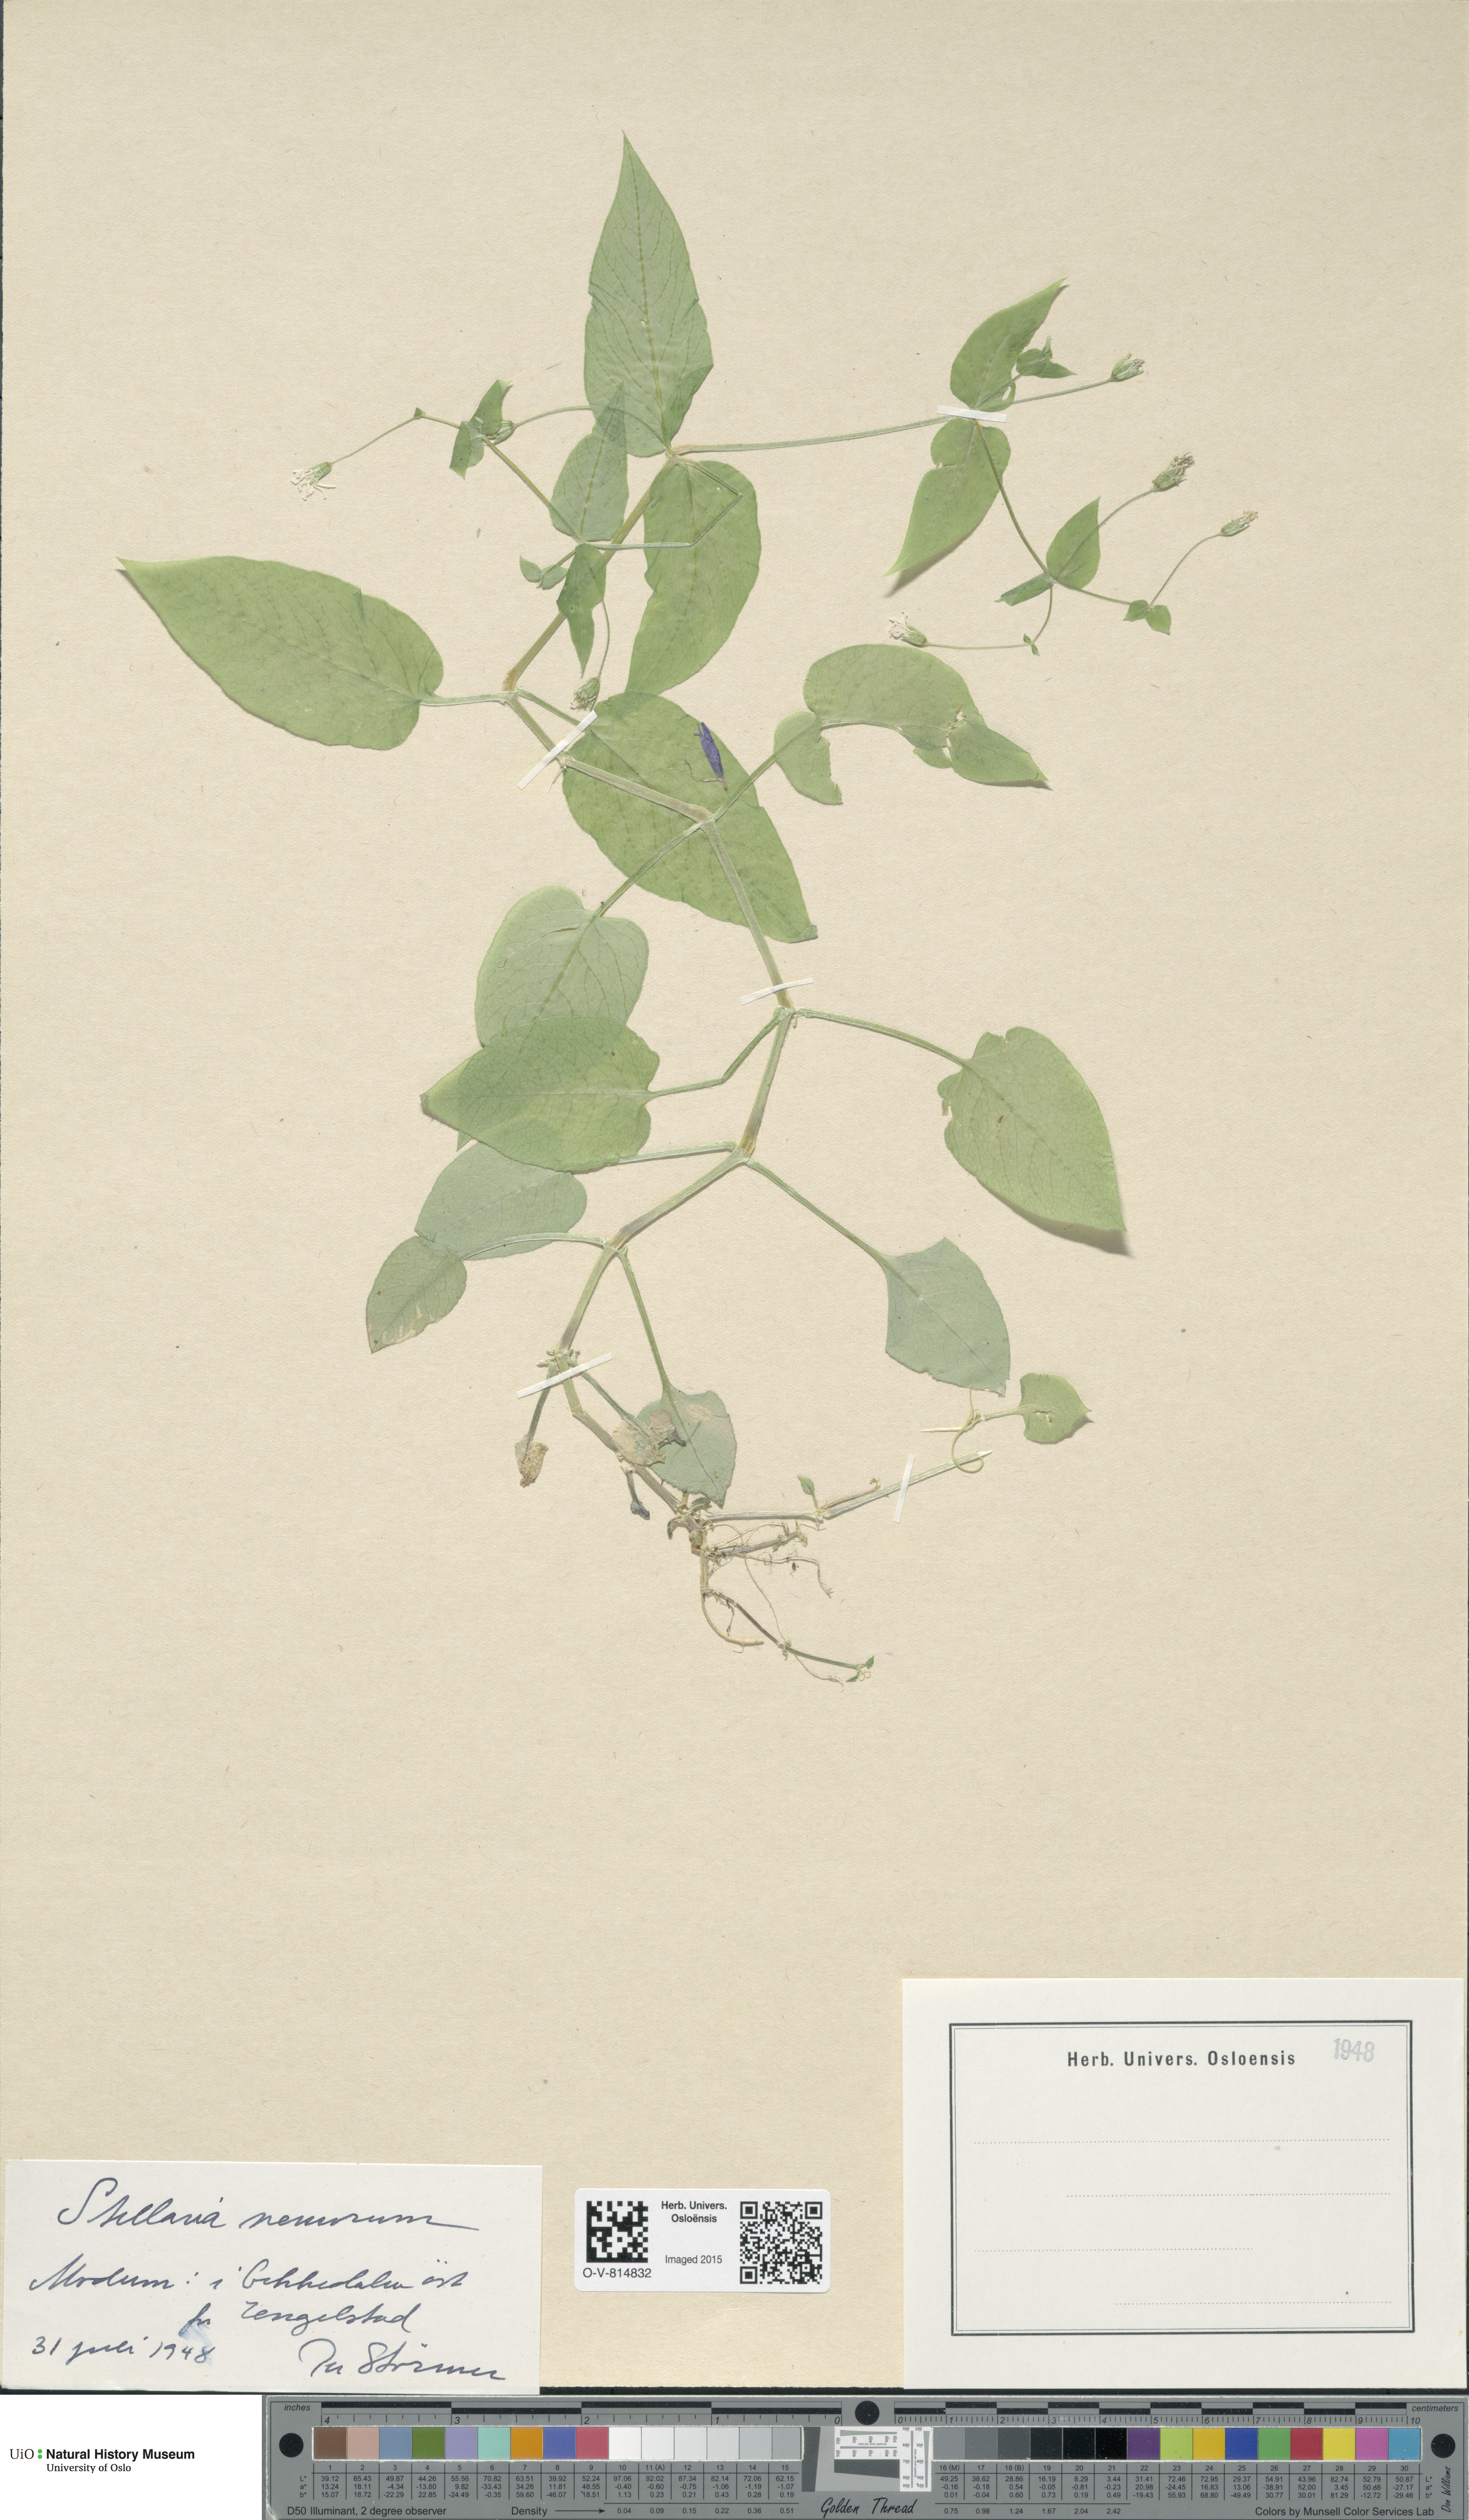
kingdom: Plantae
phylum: Tracheophyta
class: Magnoliopsida
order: Caryophyllales
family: Caryophyllaceae
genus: Stellaria
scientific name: Stellaria nemorum
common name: Wood stitchwort
